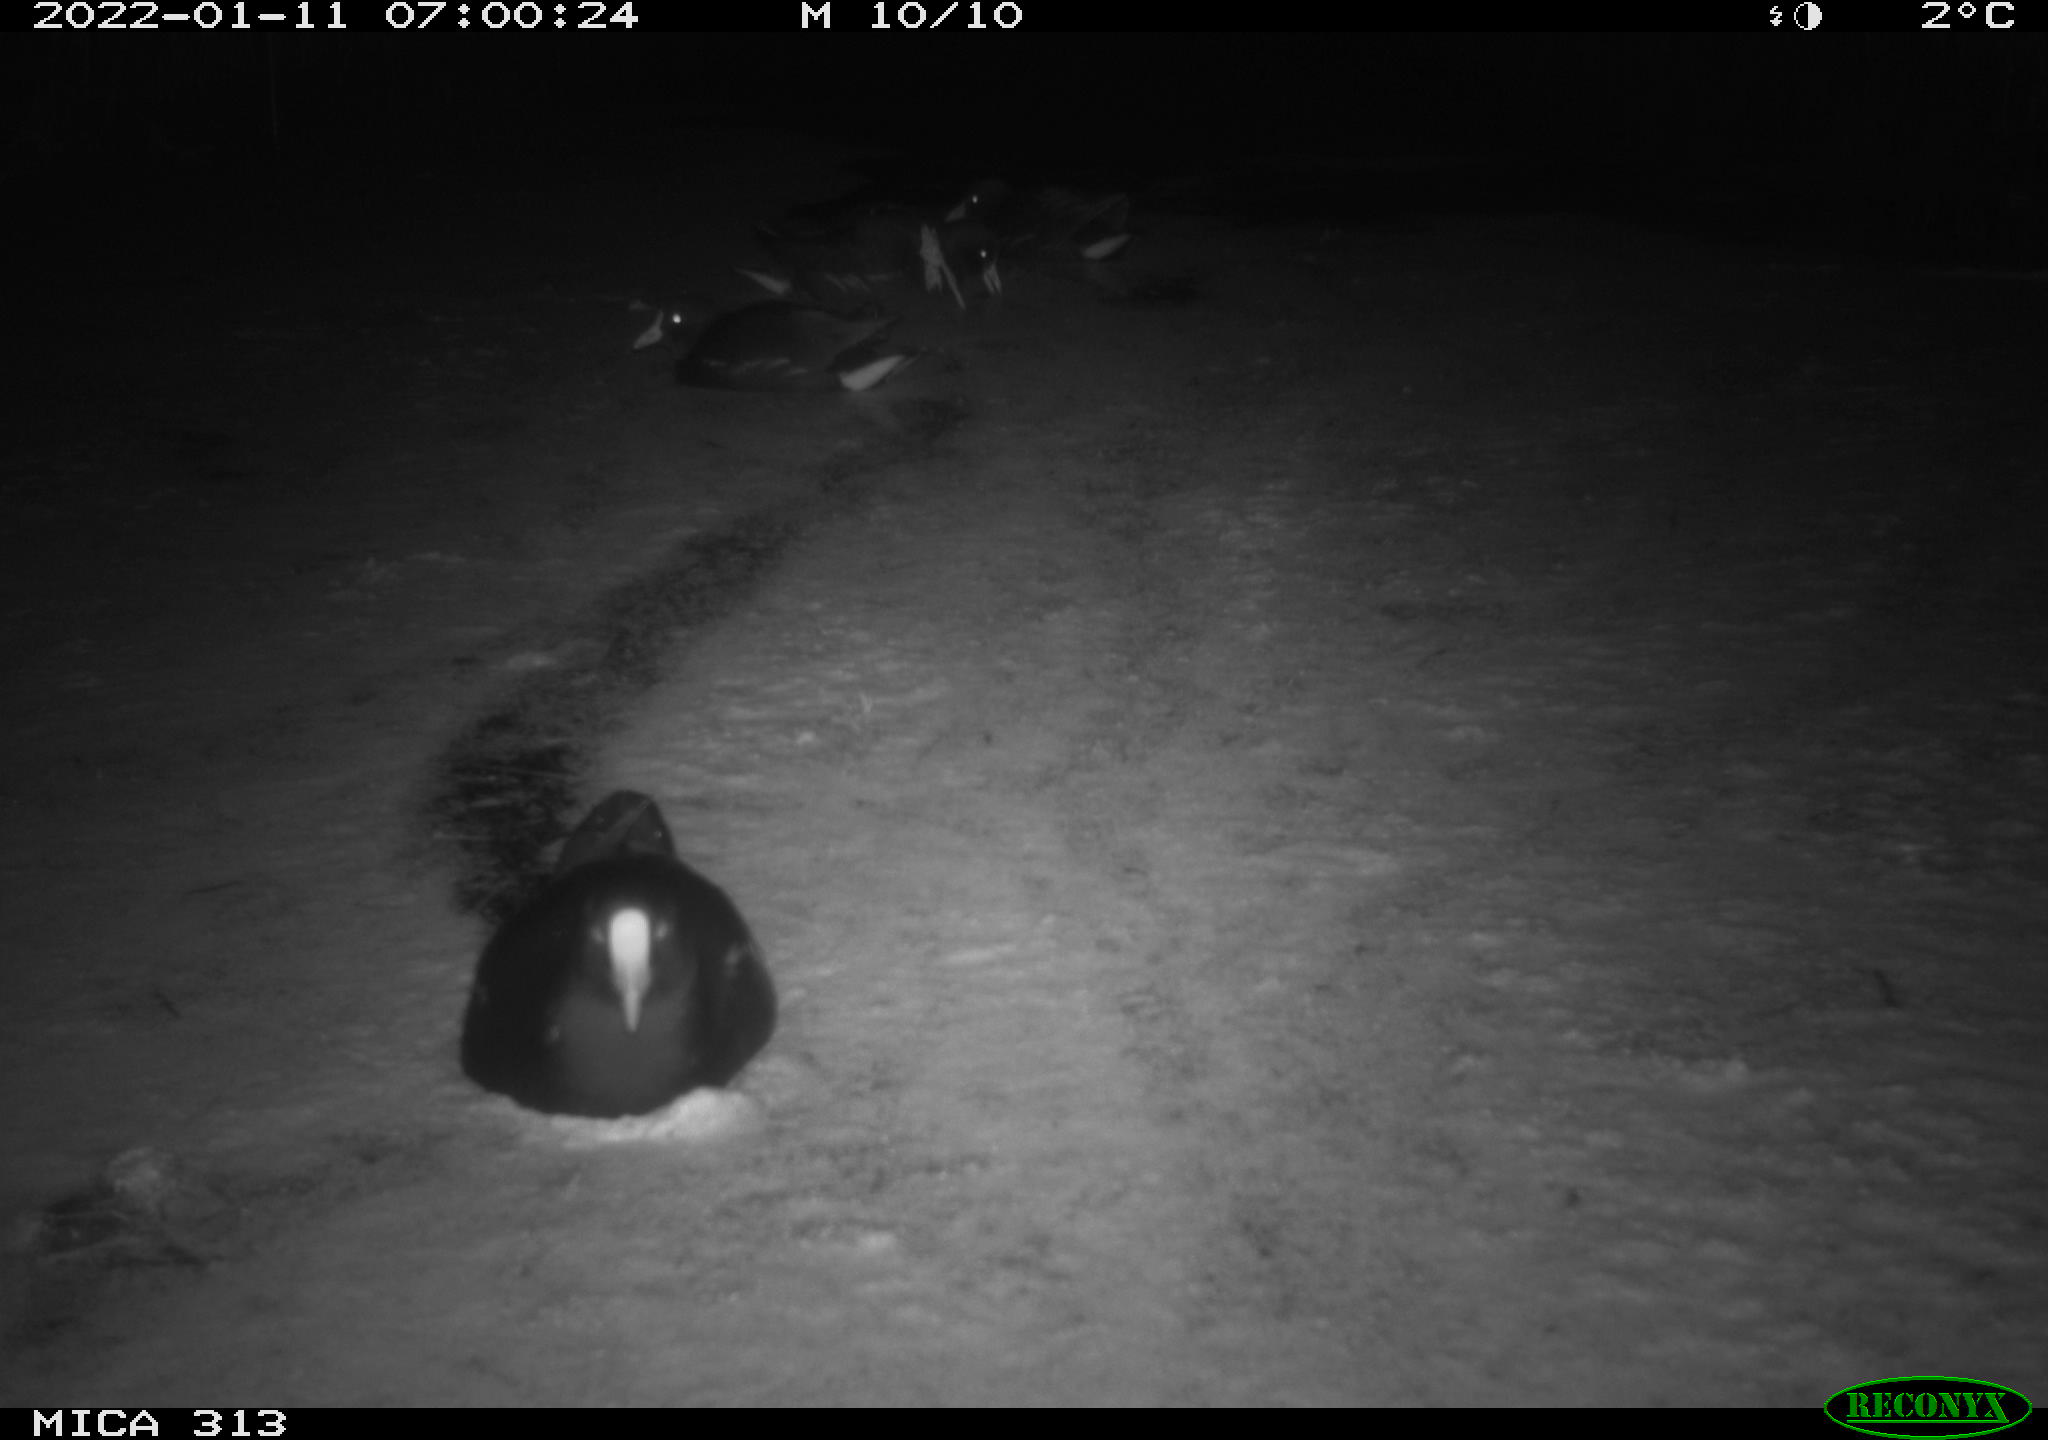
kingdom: Animalia
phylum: Chordata
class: Aves
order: Gruiformes
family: Rallidae
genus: Gallinula
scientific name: Gallinula chloropus
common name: Common moorhen
